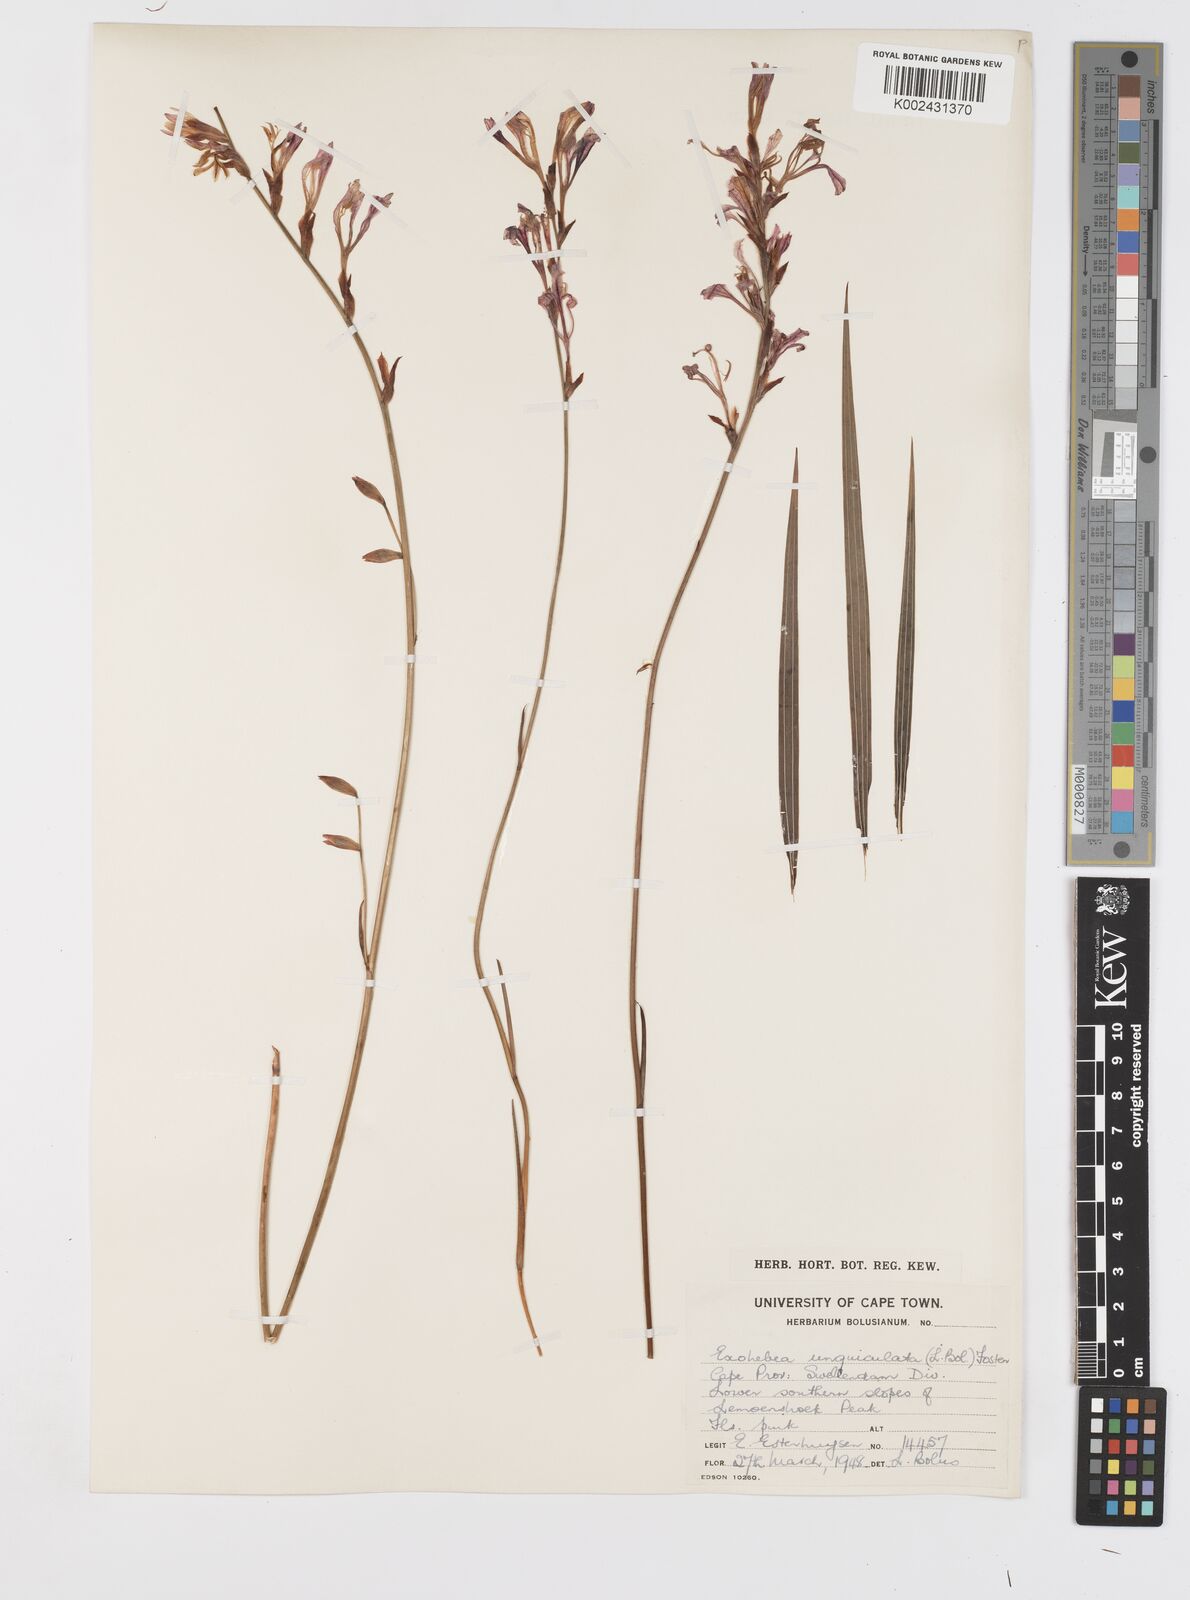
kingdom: Plantae
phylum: Tracheophyta
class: Liliopsida
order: Asparagales
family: Iridaceae
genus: Tritoniopsis
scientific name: Tritoniopsis ramosa
